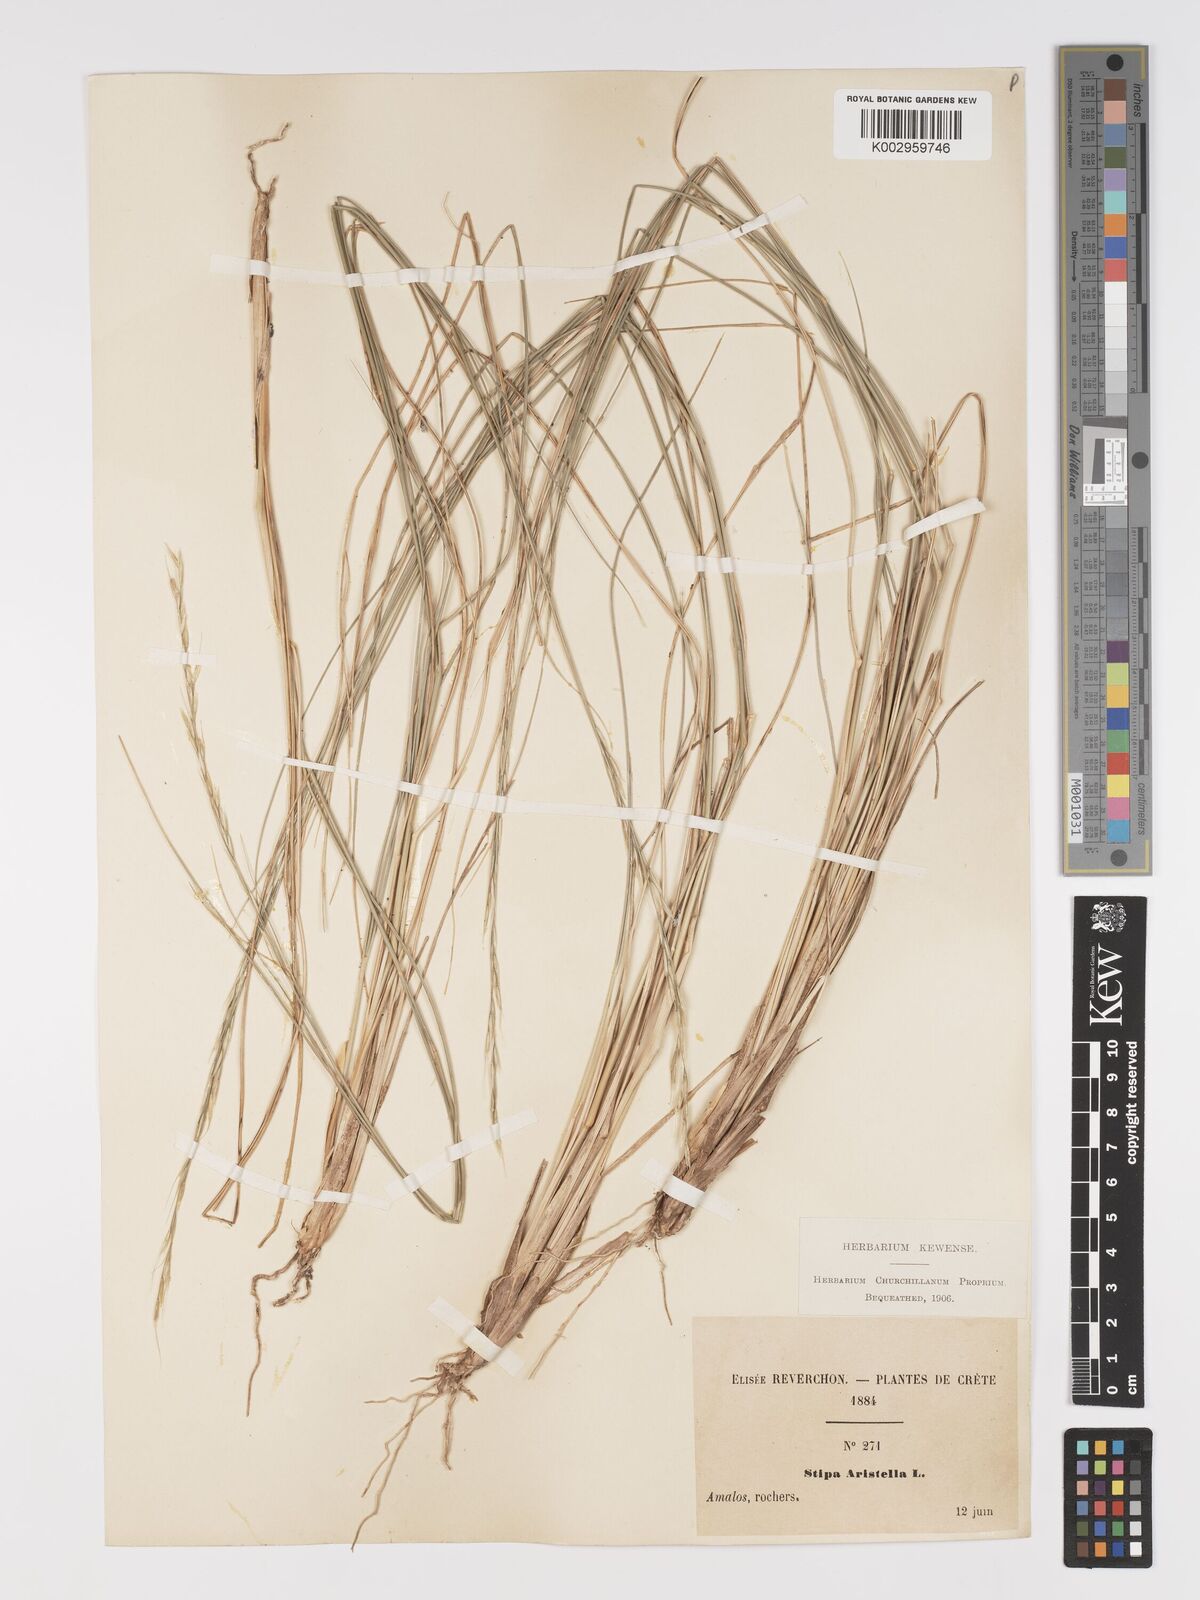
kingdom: Plantae
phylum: Tracheophyta
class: Liliopsida
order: Poales
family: Poaceae
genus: Achnatherum
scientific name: Achnatherum bromoides
